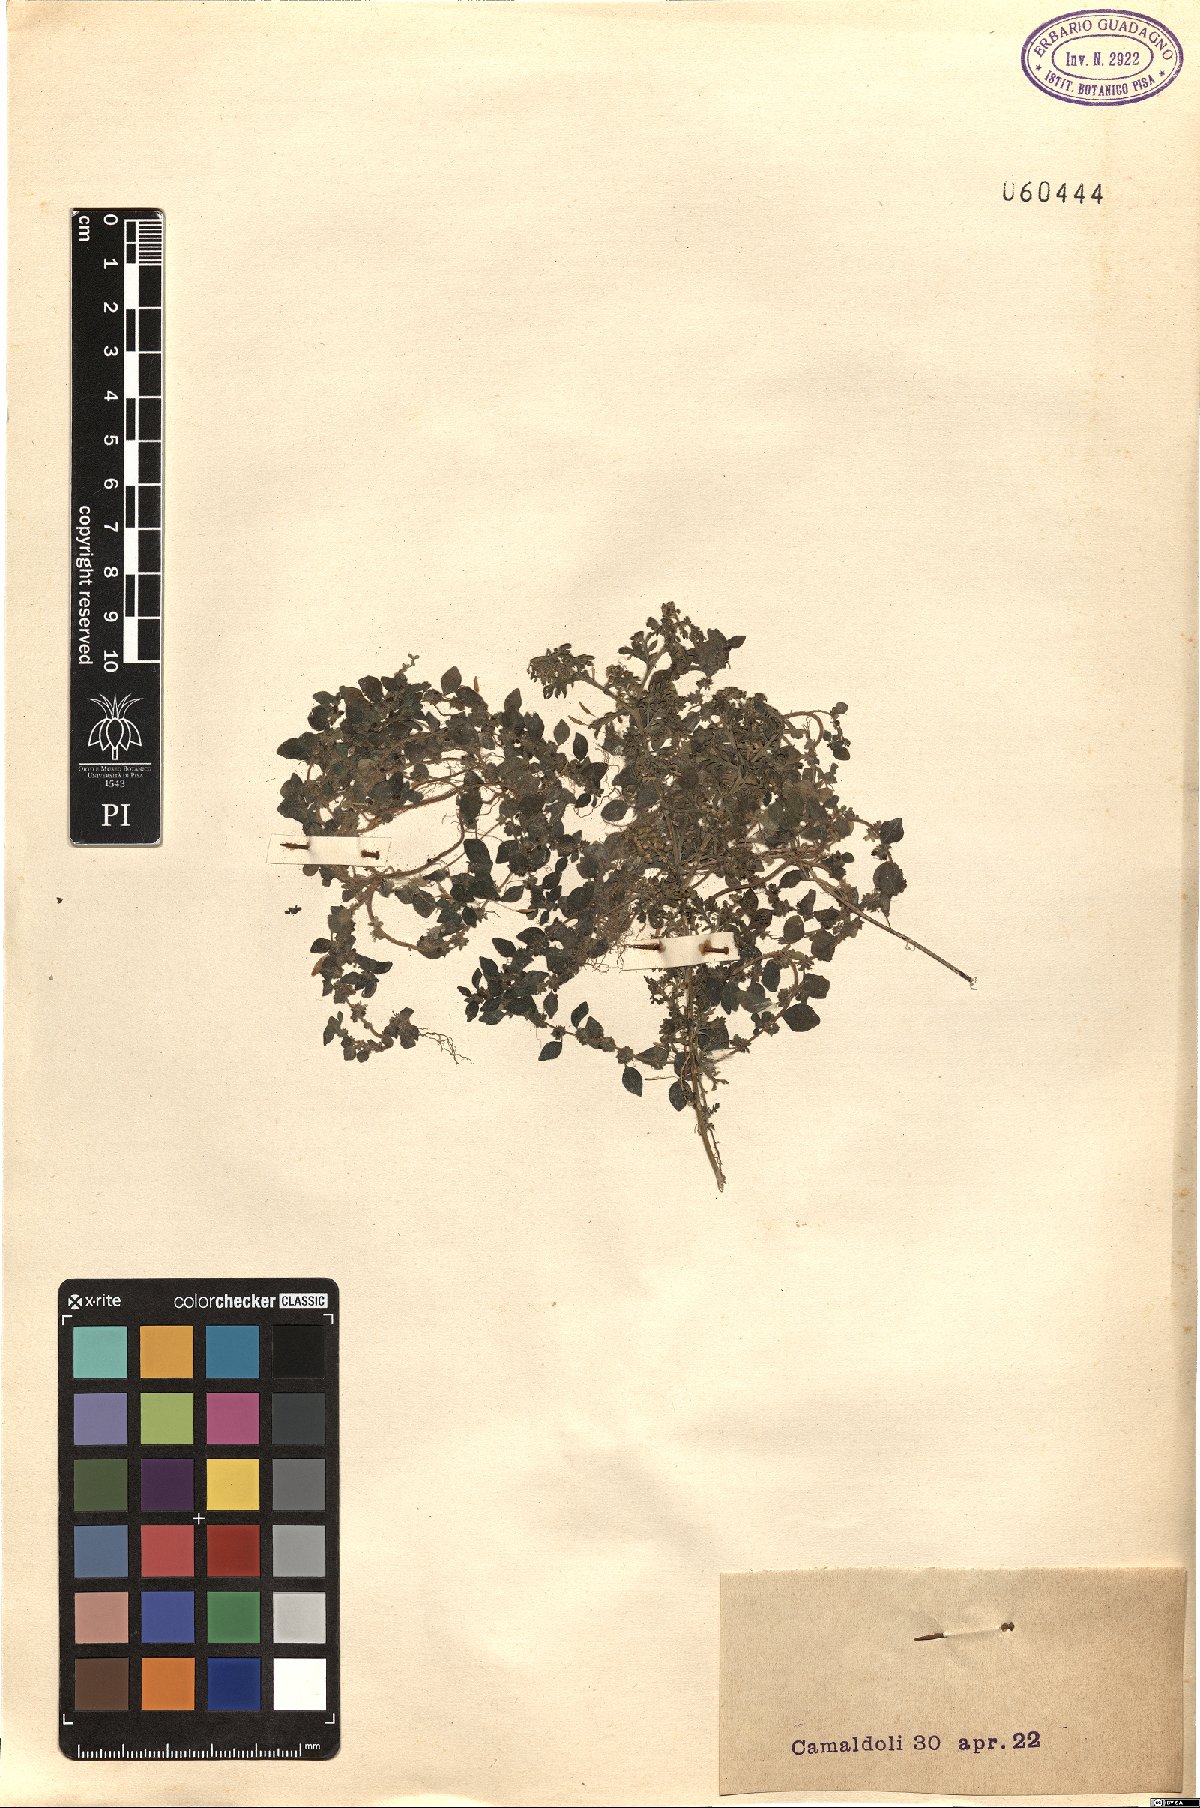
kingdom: Plantae
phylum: Tracheophyta
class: Magnoliopsida
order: Rosales
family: Urticaceae
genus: Parietaria
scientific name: Parietaria lusitanica
